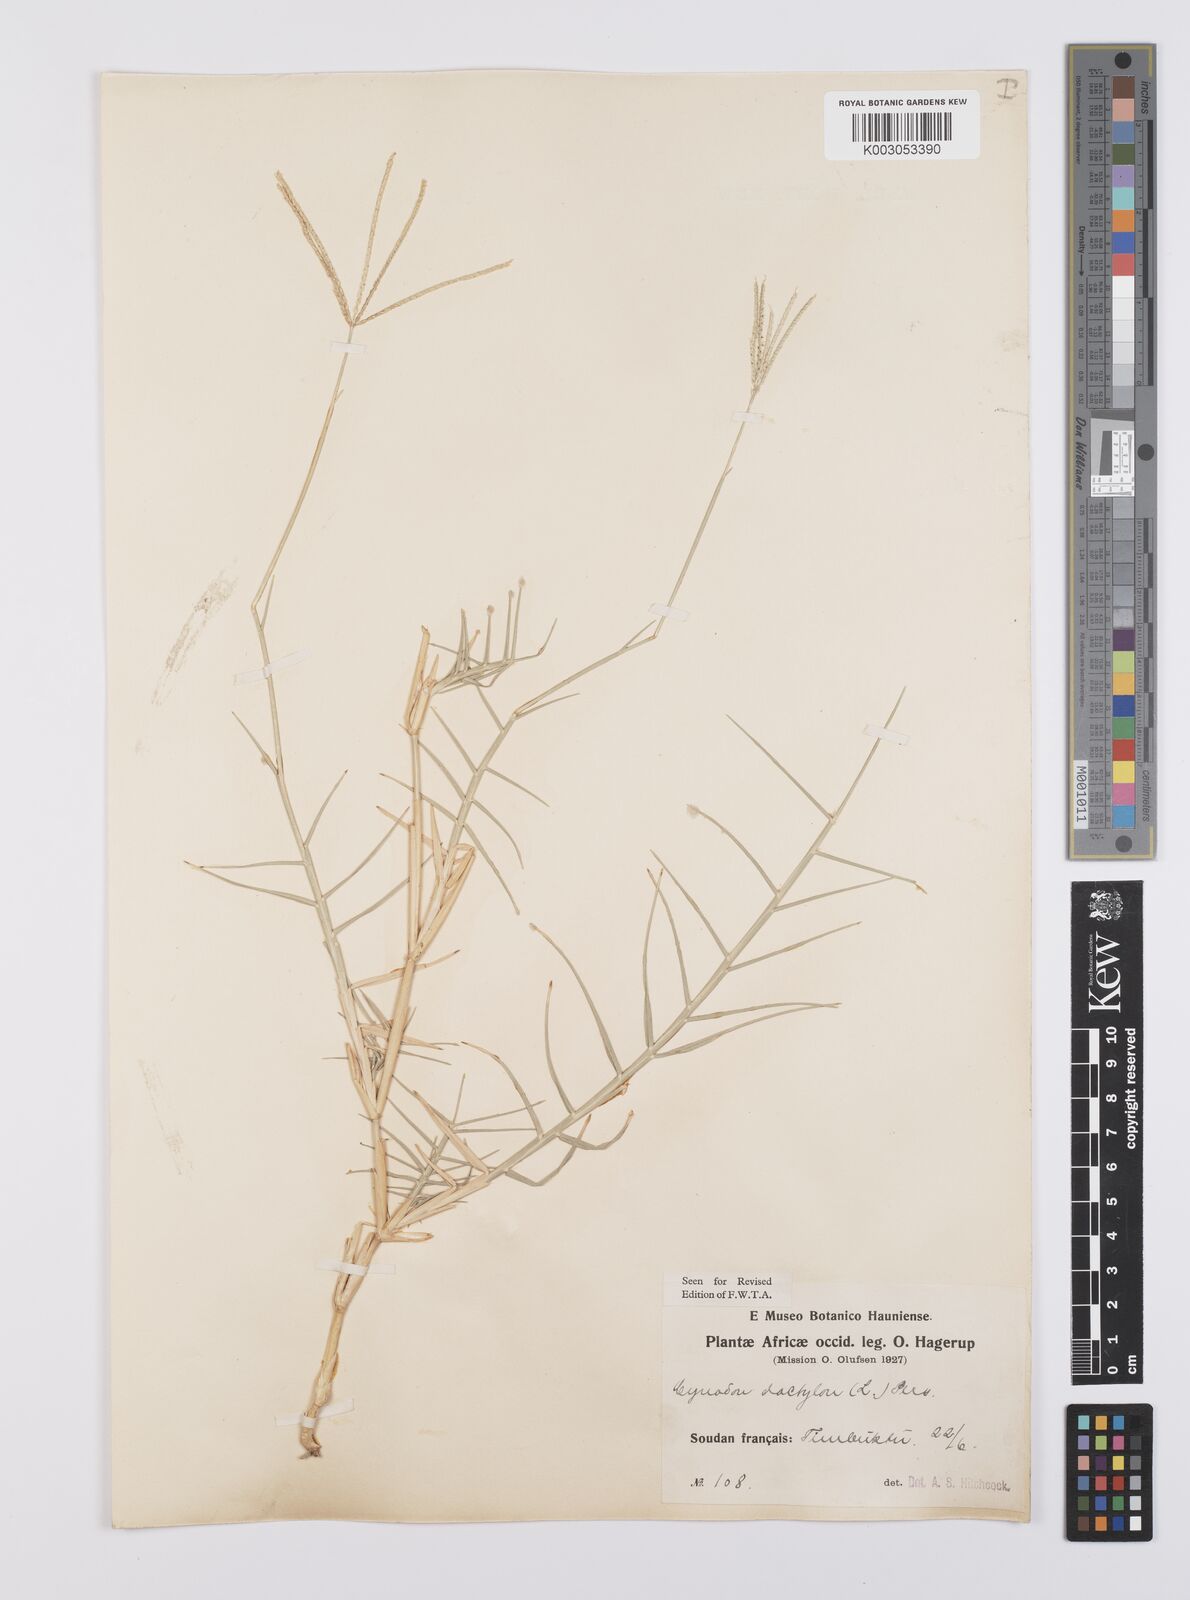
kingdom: Plantae
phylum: Tracheophyta
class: Liliopsida
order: Poales
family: Poaceae
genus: Cynodon
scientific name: Cynodon dactylon
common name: Bermuda grass
